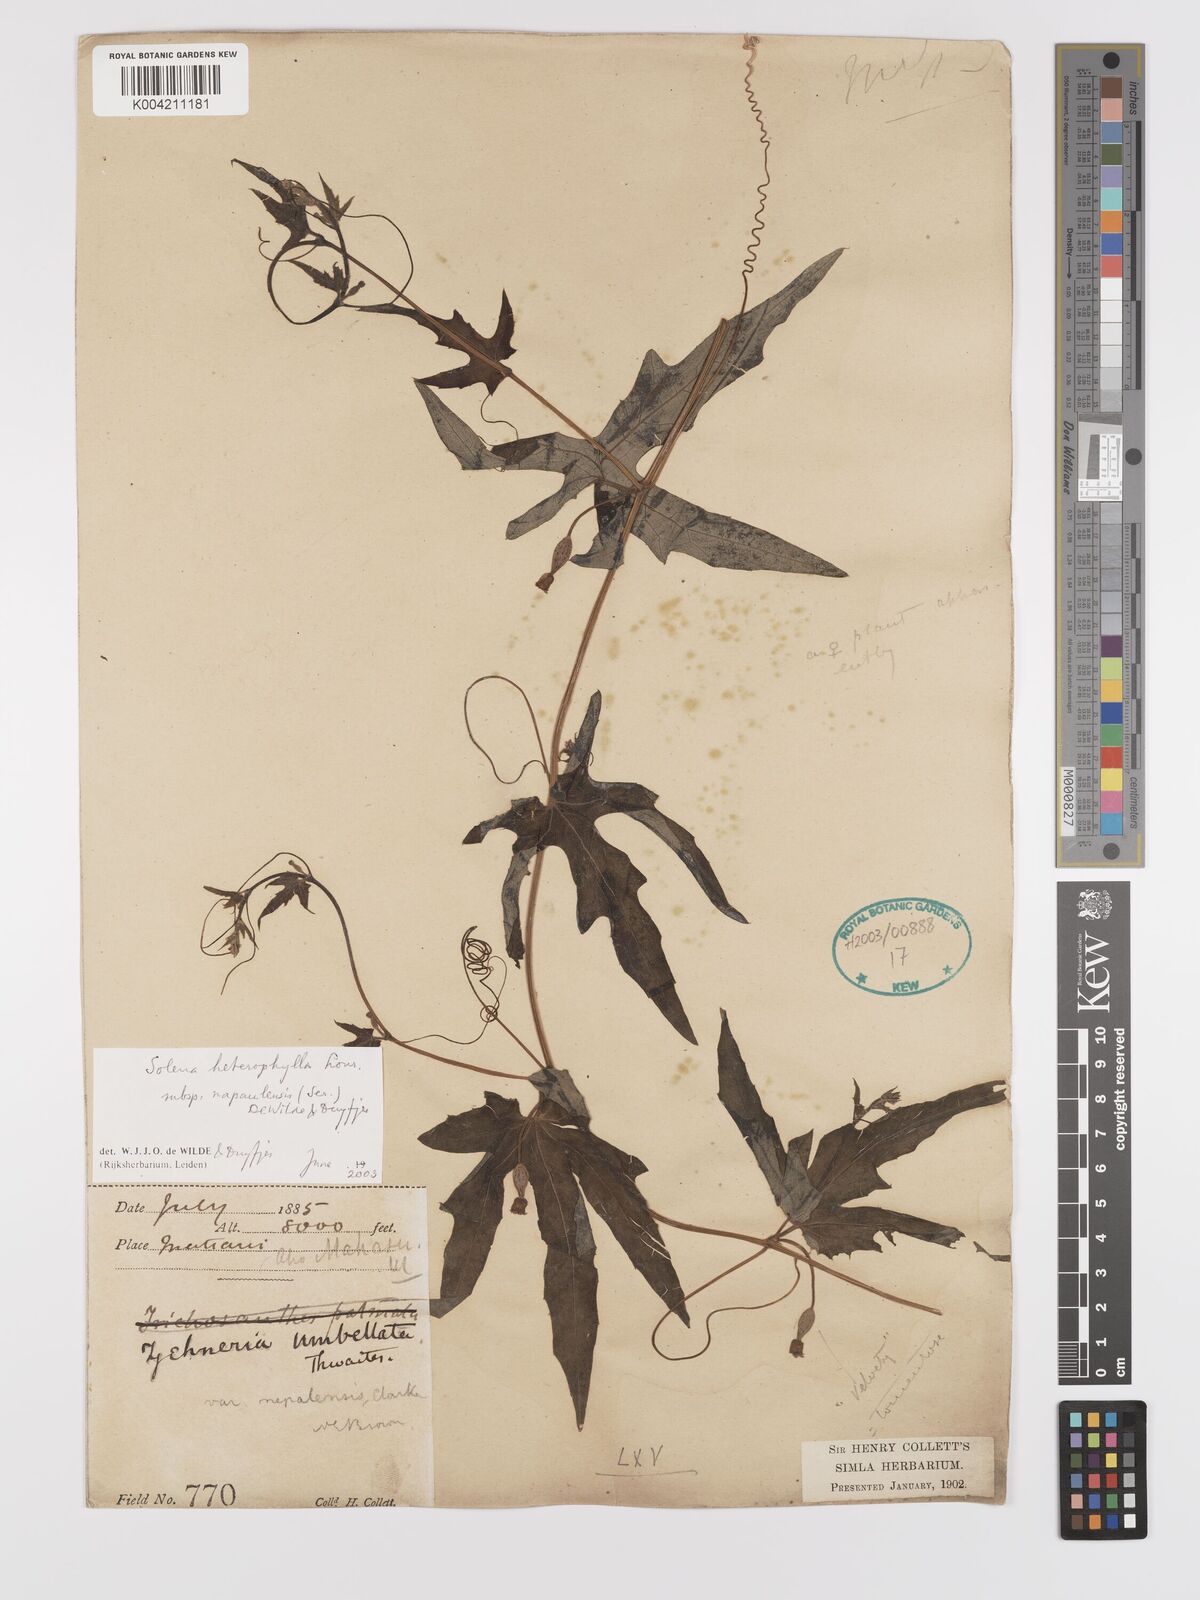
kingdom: Plantae
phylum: Tracheophyta
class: Magnoliopsida
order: Cucurbitales
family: Cucurbitaceae
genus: Solena
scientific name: Solena heterophylla
